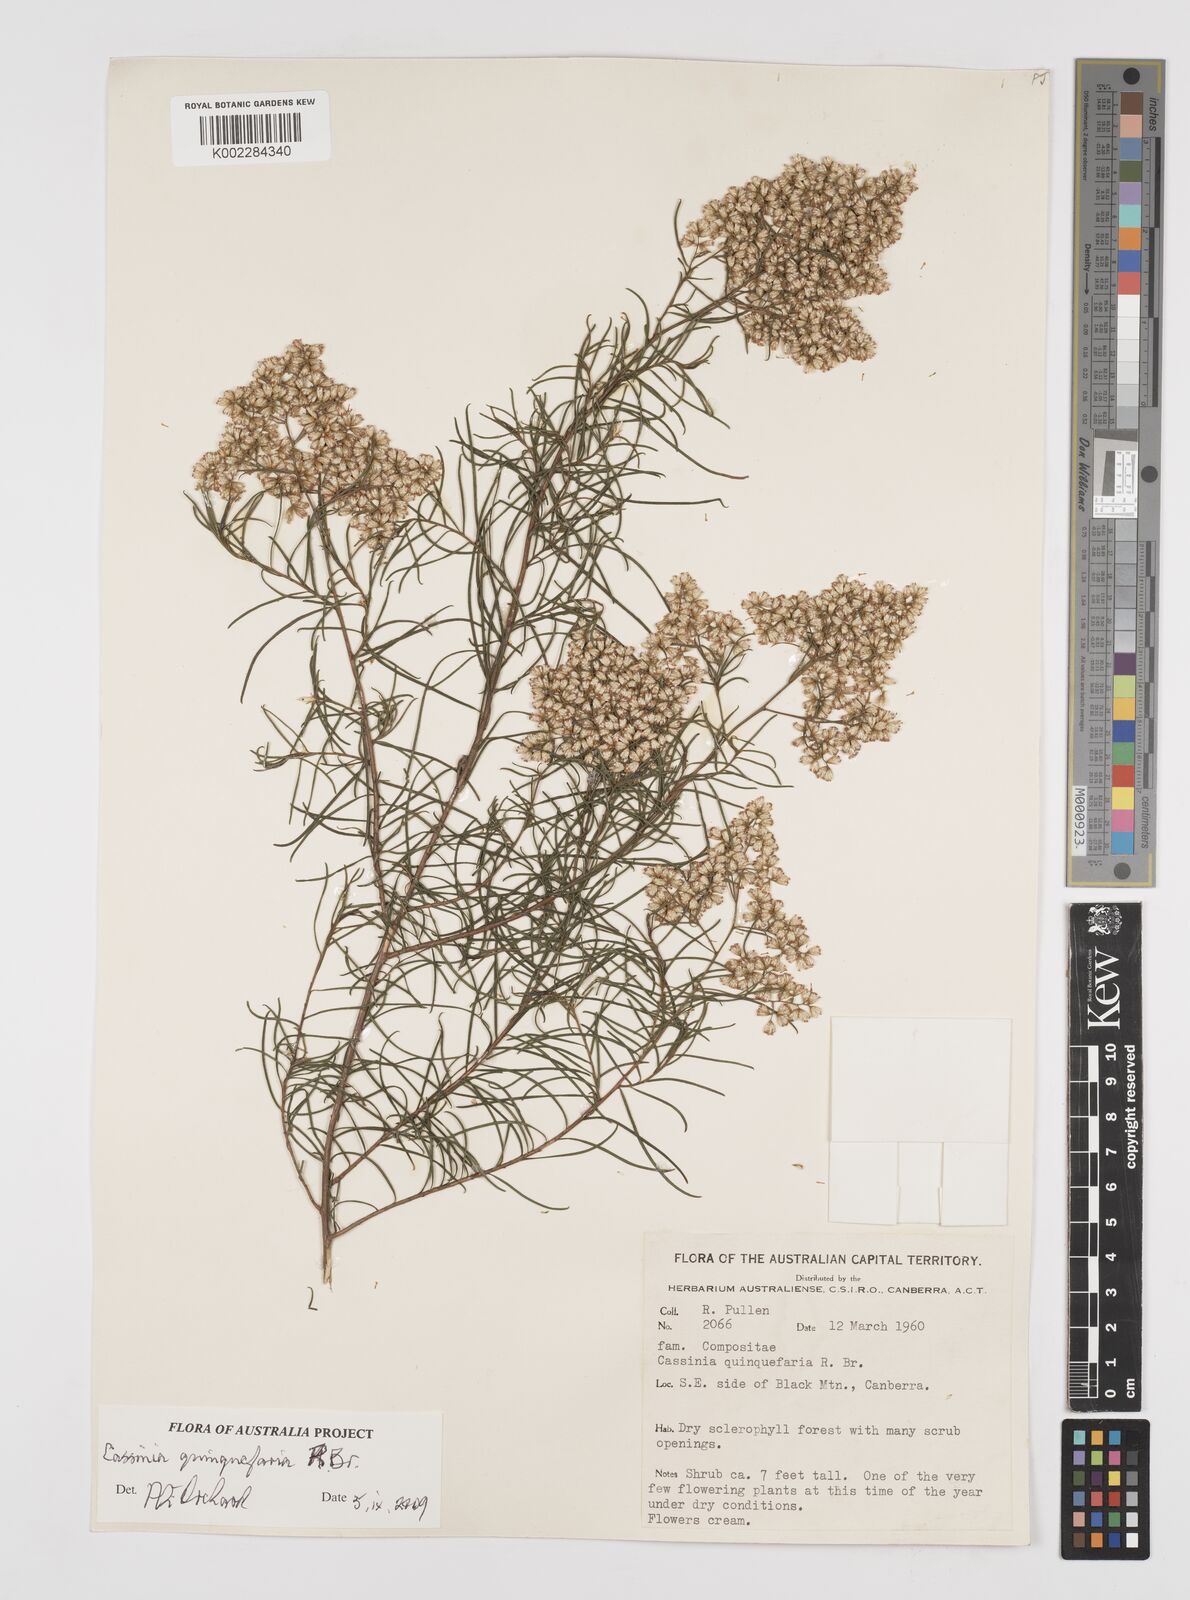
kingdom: Plantae
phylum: Tracheophyta
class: Magnoliopsida
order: Asterales
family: Asteraceae
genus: Cassinia
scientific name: Cassinia quinquefaria
